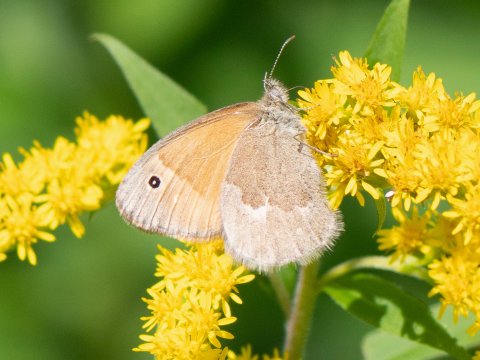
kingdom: Animalia
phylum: Arthropoda
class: Insecta
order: Lepidoptera
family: Nymphalidae
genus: Coenonympha
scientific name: Coenonympha tullia
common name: Large Heath
